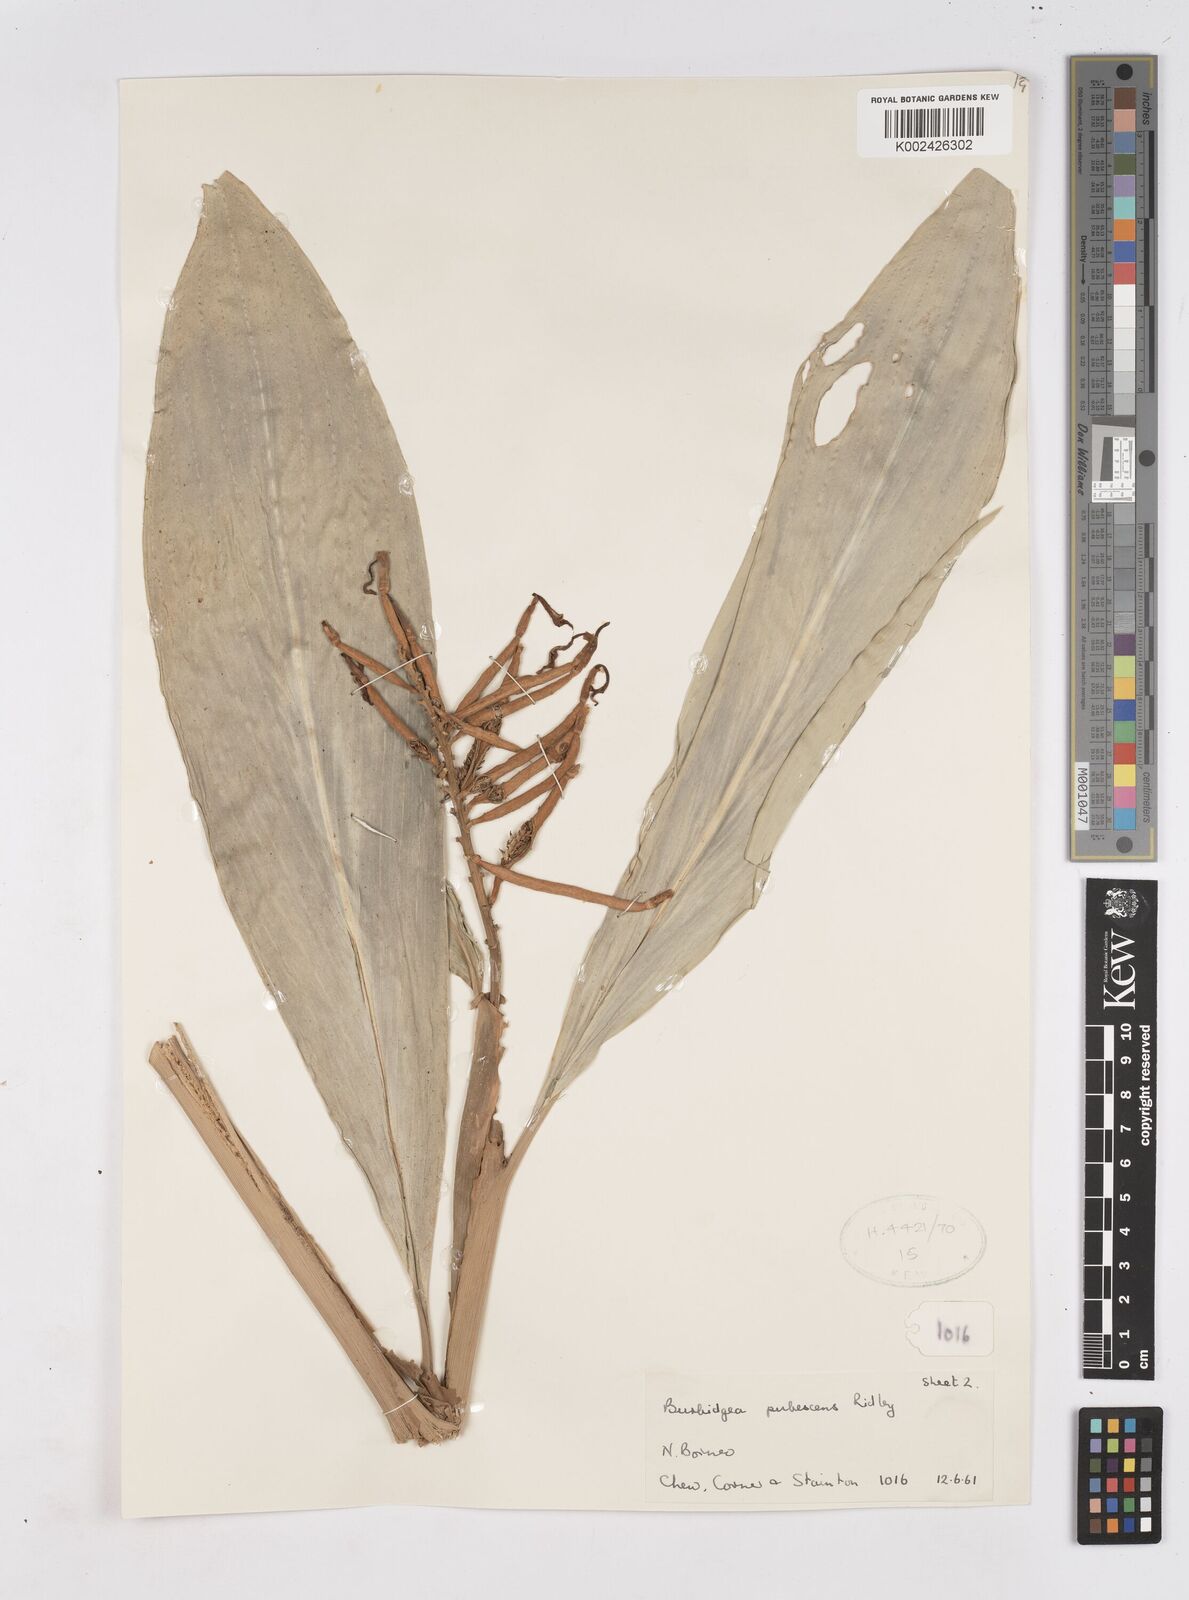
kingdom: Plantae
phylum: Tracheophyta
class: Liliopsida
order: Zingiberales
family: Zingiberaceae
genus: Burbidgea
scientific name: Burbidgea schizocheila
